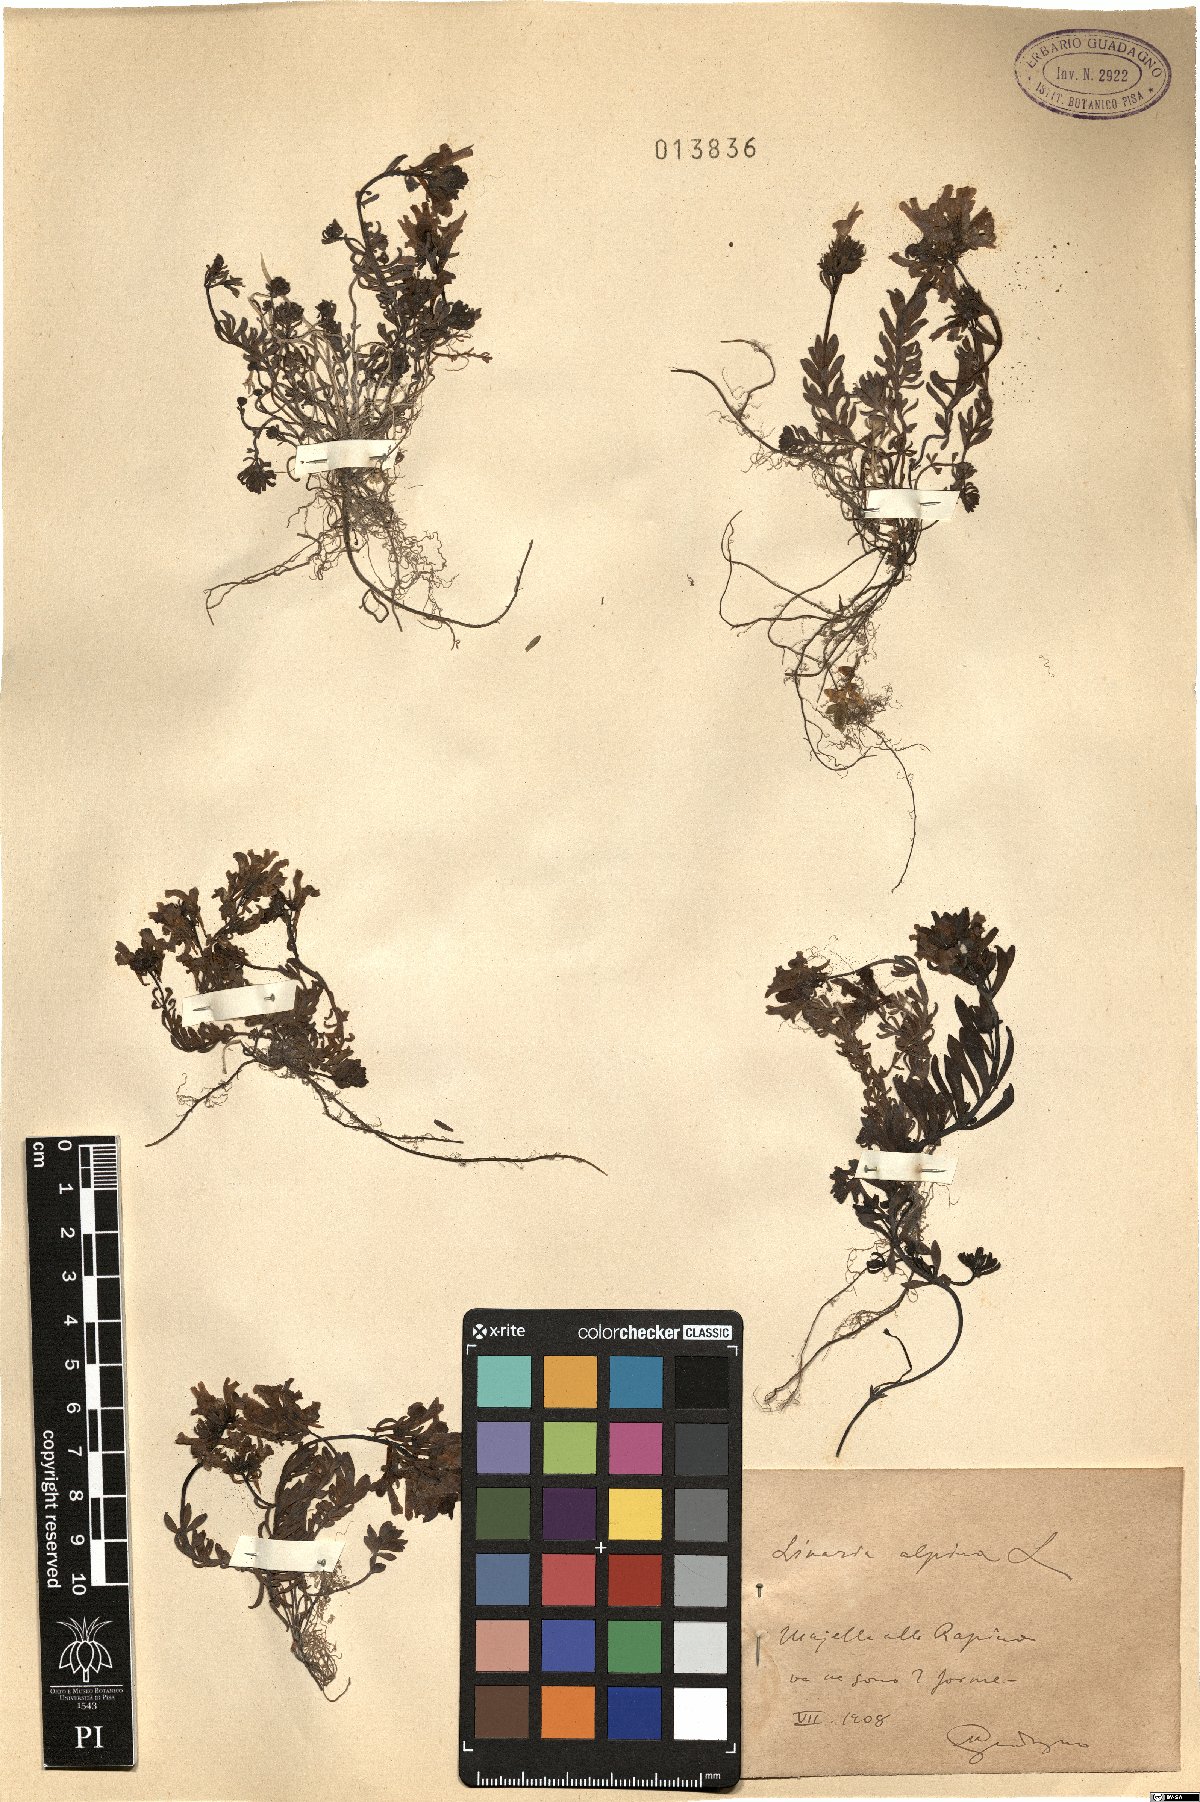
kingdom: Plantae
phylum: Tracheophyta
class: Magnoliopsida
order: Lamiales
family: Plantaginaceae
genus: Linaria
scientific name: Linaria alpina
